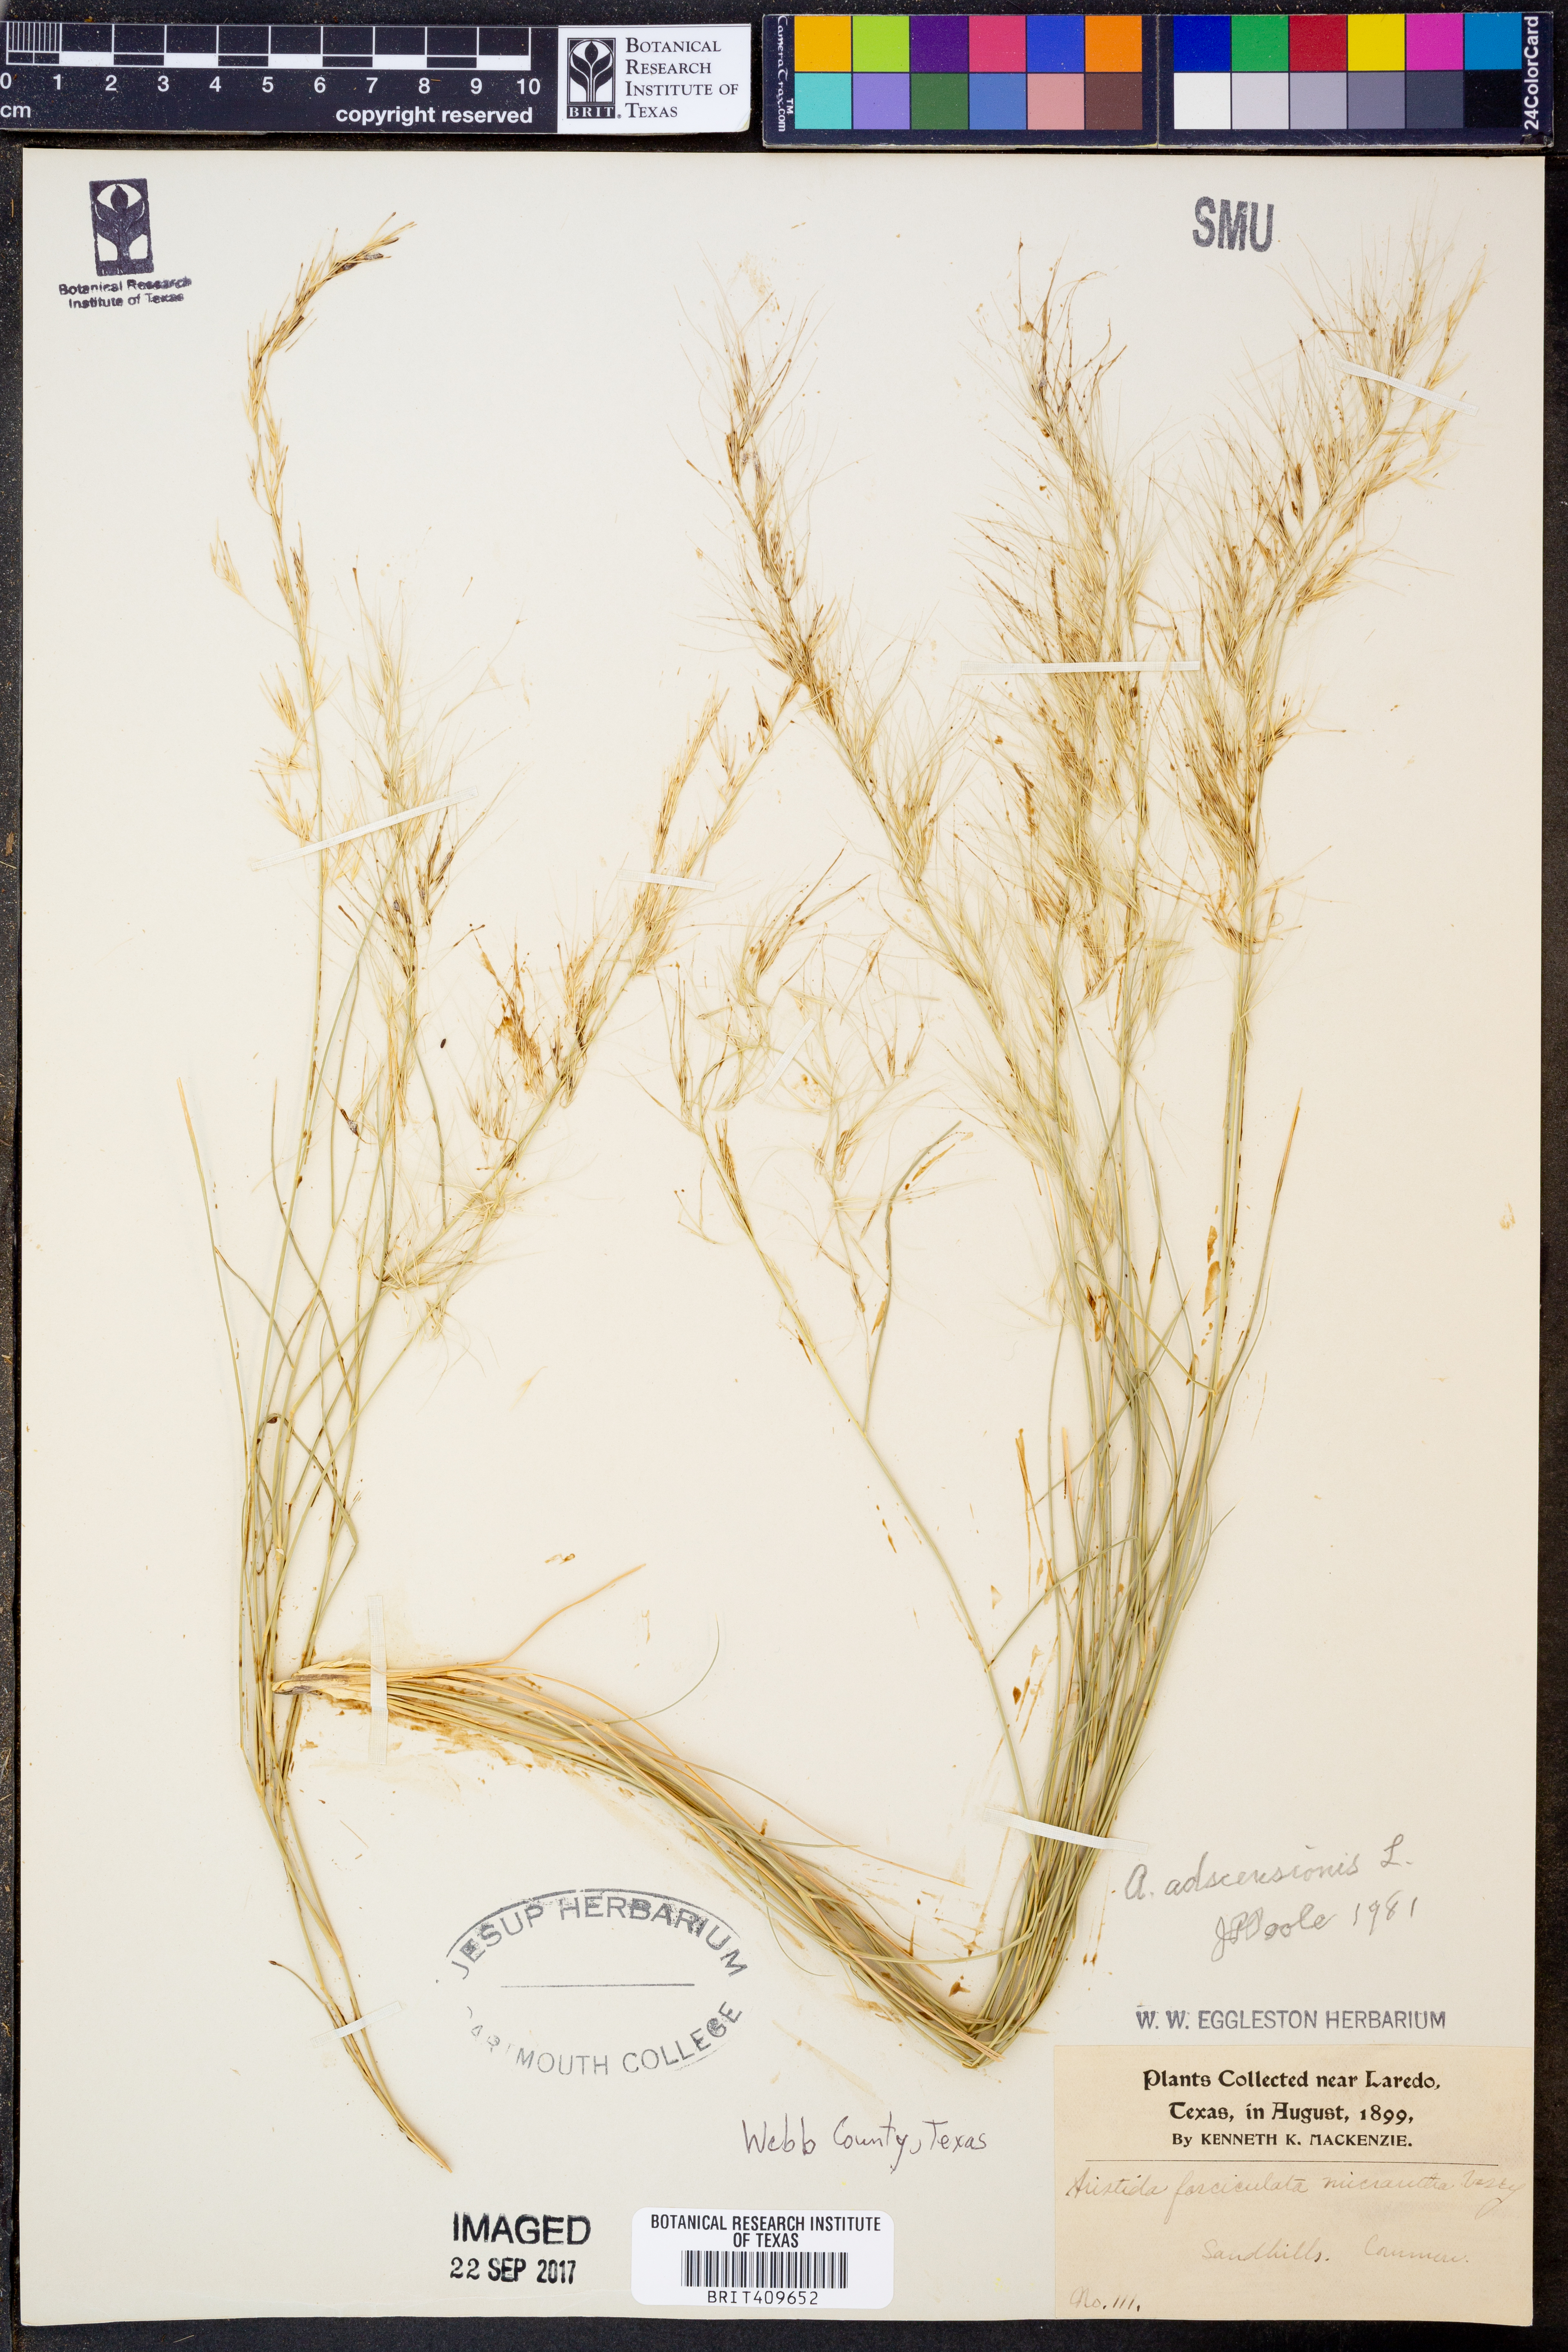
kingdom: Plantae
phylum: Tracheophyta
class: Liliopsida
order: Poales
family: Poaceae
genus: Aristida
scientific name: Aristida adscensionis
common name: Sixweeks threeawn
